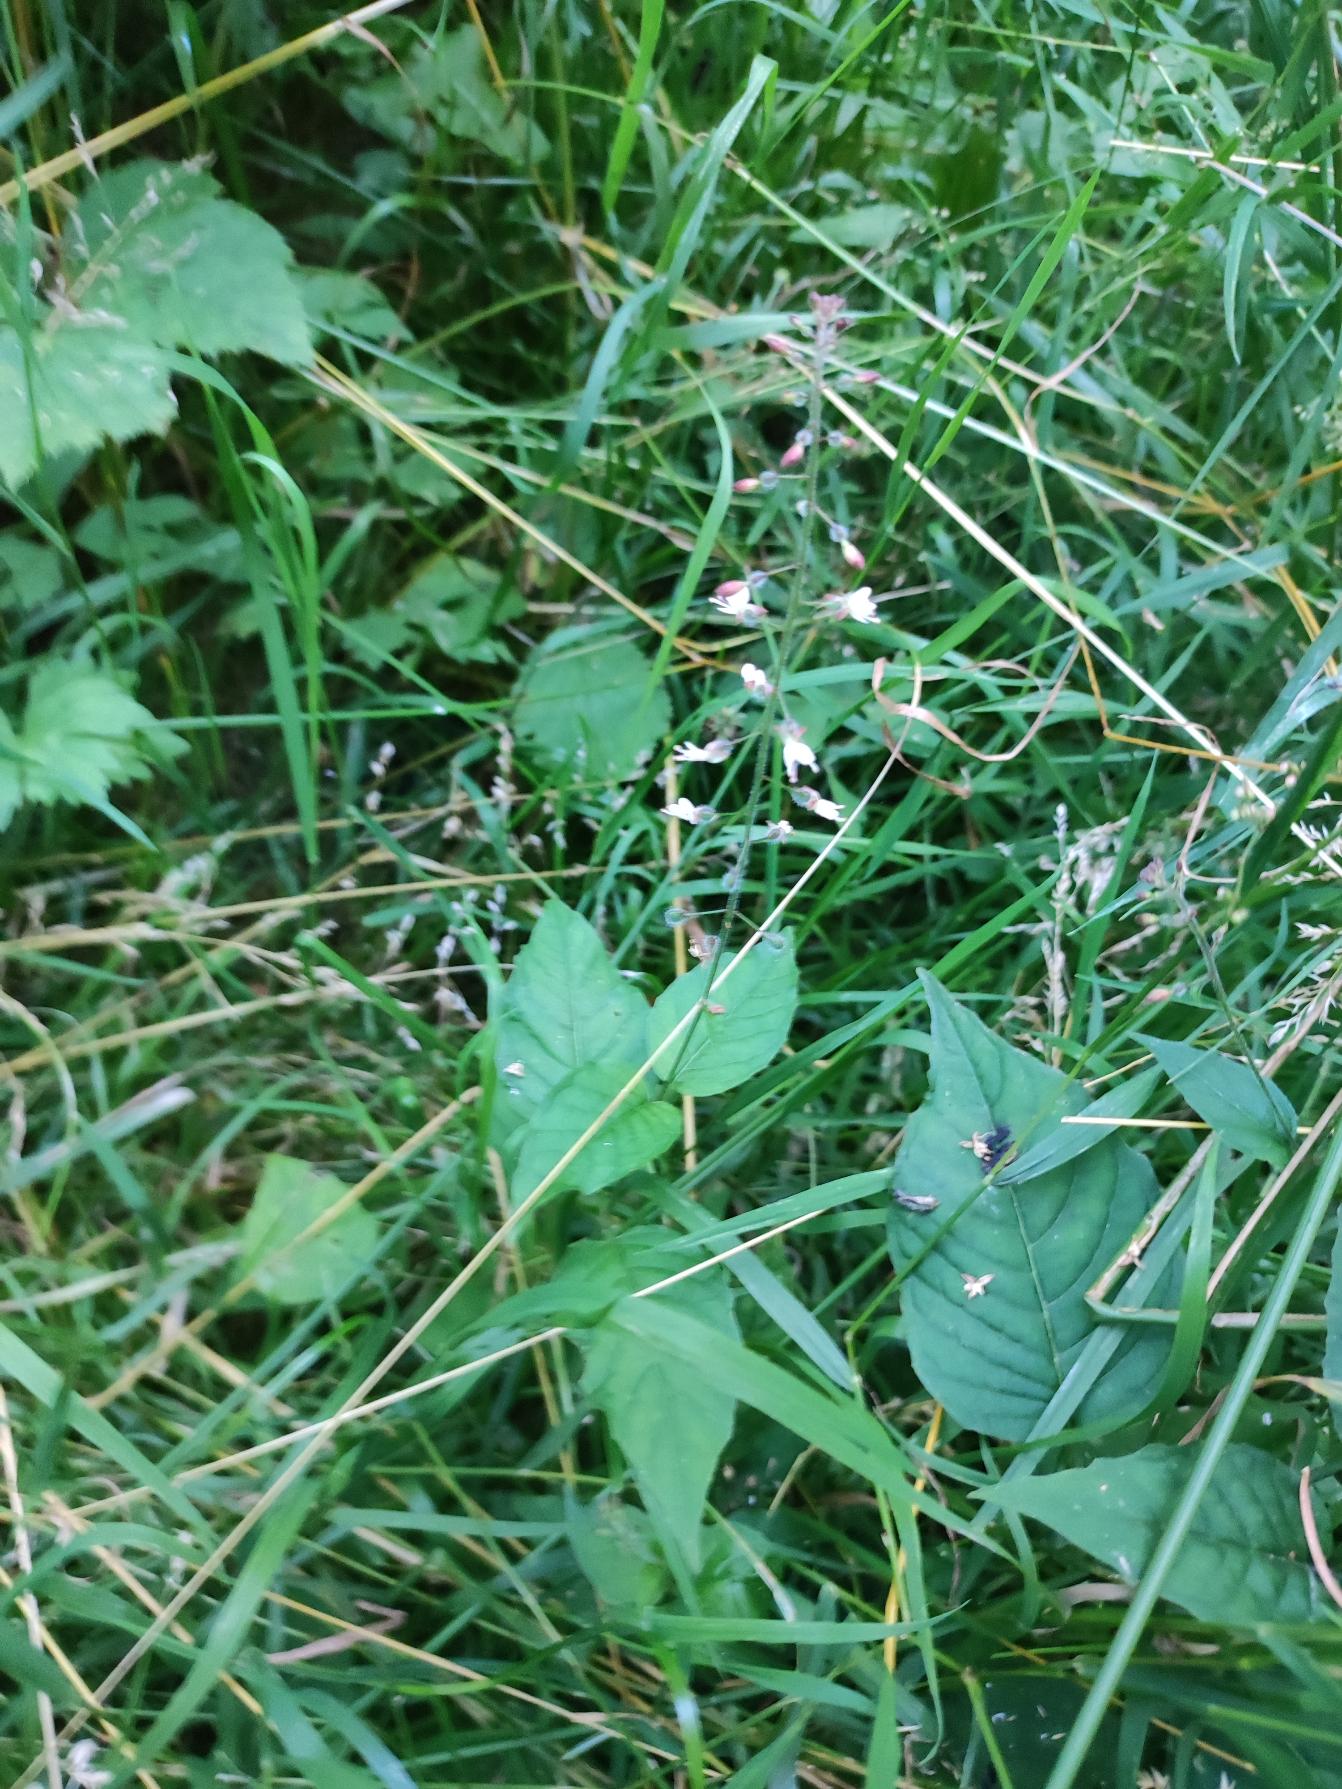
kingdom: Plantae
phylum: Tracheophyta
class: Magnoliopsida
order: Myrtales
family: Onagraceae
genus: Circaea
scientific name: Circaea lutetiana
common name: Dunet steffensurt
